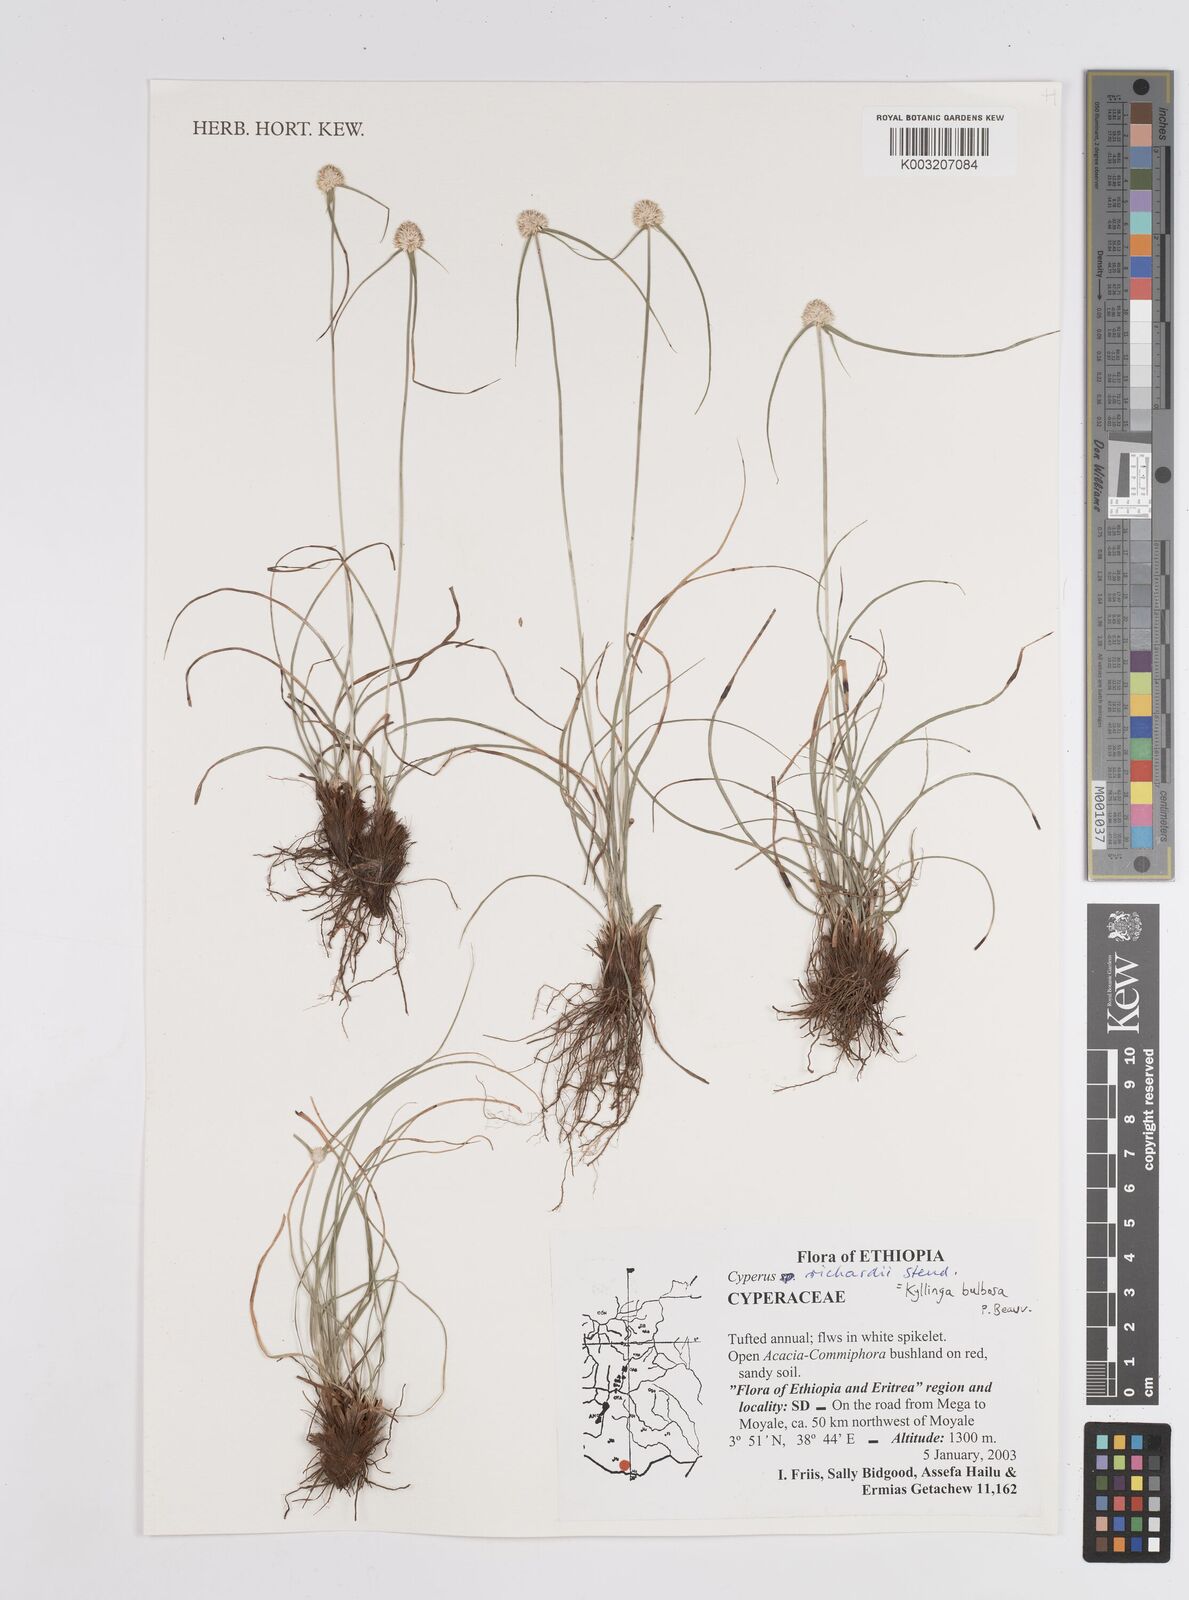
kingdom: Plantae
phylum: Tracheophyta
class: Liliopsida
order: Poales
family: Cyperaceae
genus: Cyperus
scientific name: Cyperus
